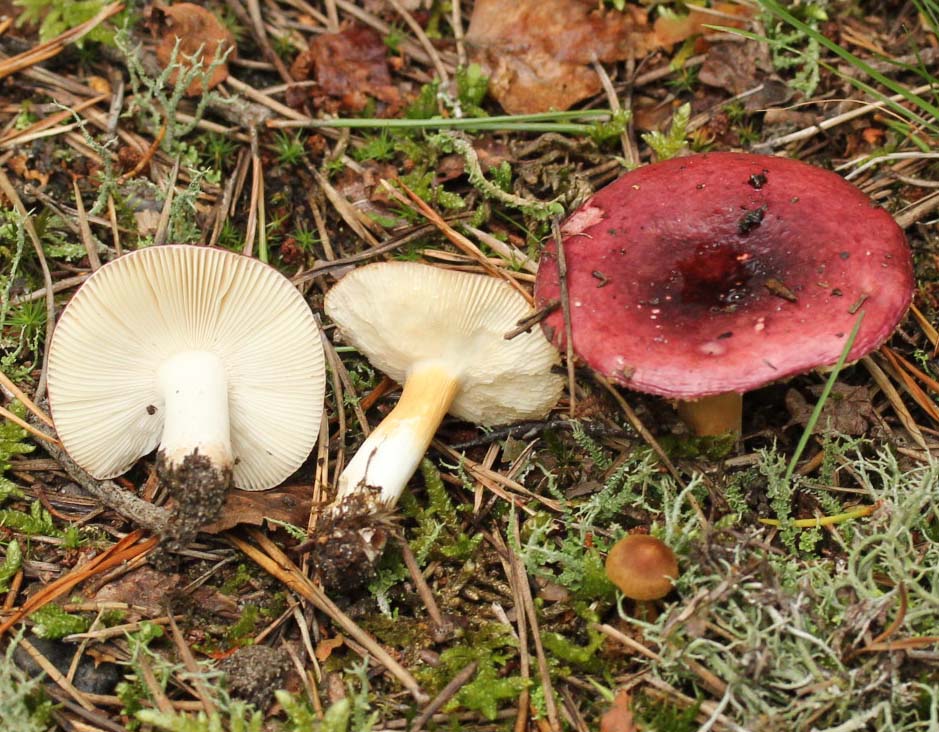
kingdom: Fungi
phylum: Basidiomycota
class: Agaricomycetes
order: Russulales
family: Russulaceae
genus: Russula
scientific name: Russula puellaris
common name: gulstokket skørhat
